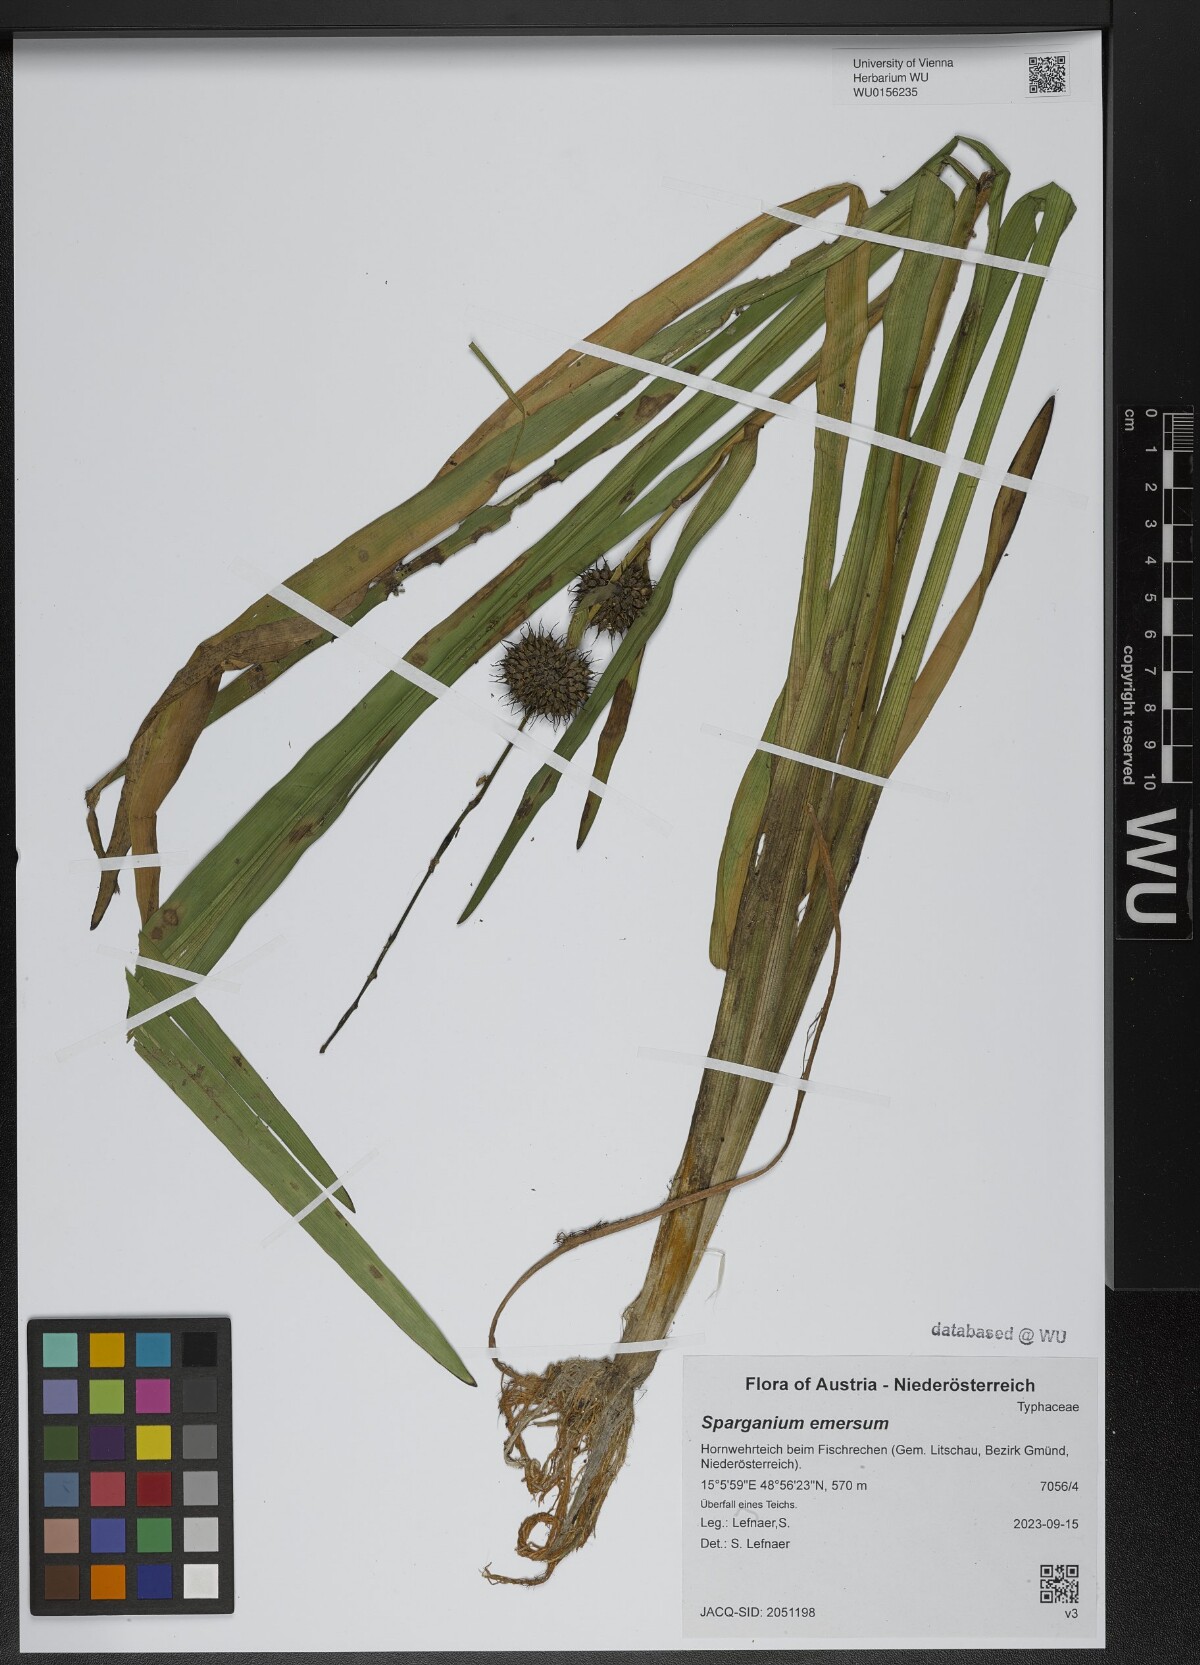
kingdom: Plantae
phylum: Tracheophyta
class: Liliopsida
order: Poales
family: Typhaceae
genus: Sparganium
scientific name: Sparganium emersum
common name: Unbranched bur-reed
